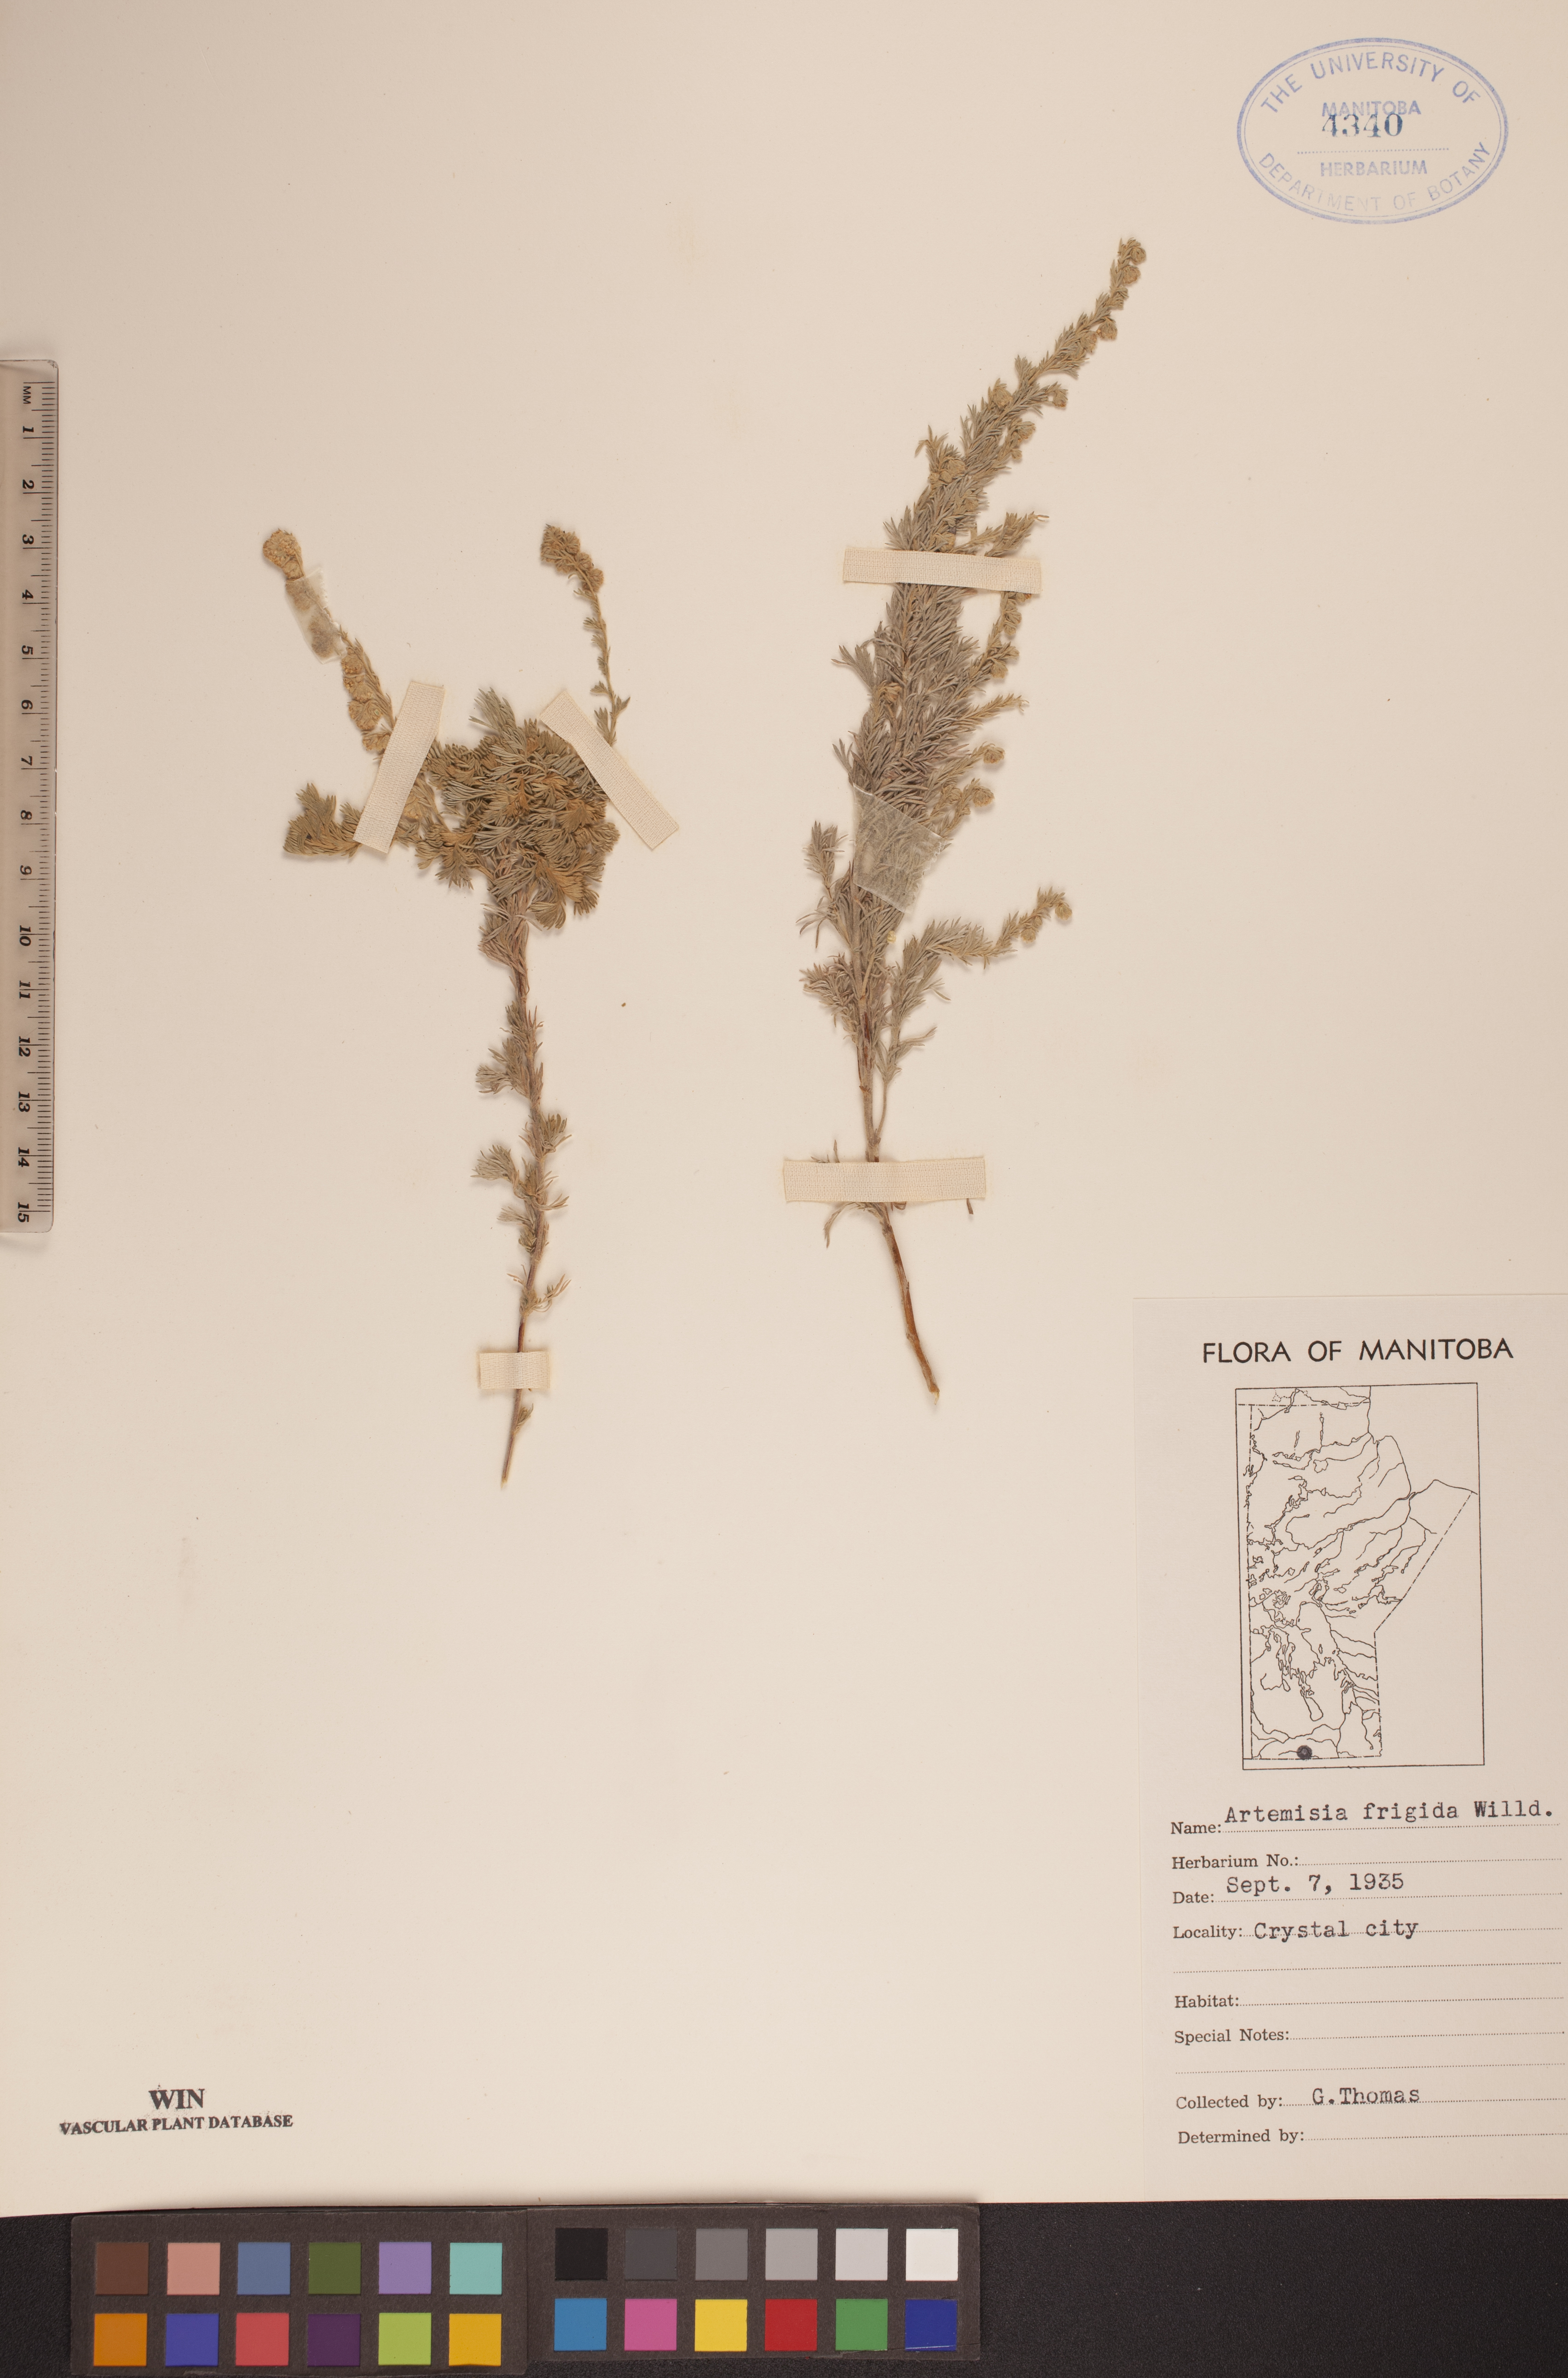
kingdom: Plantae
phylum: Tracheophyta
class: Magnoliopsida
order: Asterales
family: Asteraceae
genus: Artemisia
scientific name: Artemisia frigida
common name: Prairie sagewort
